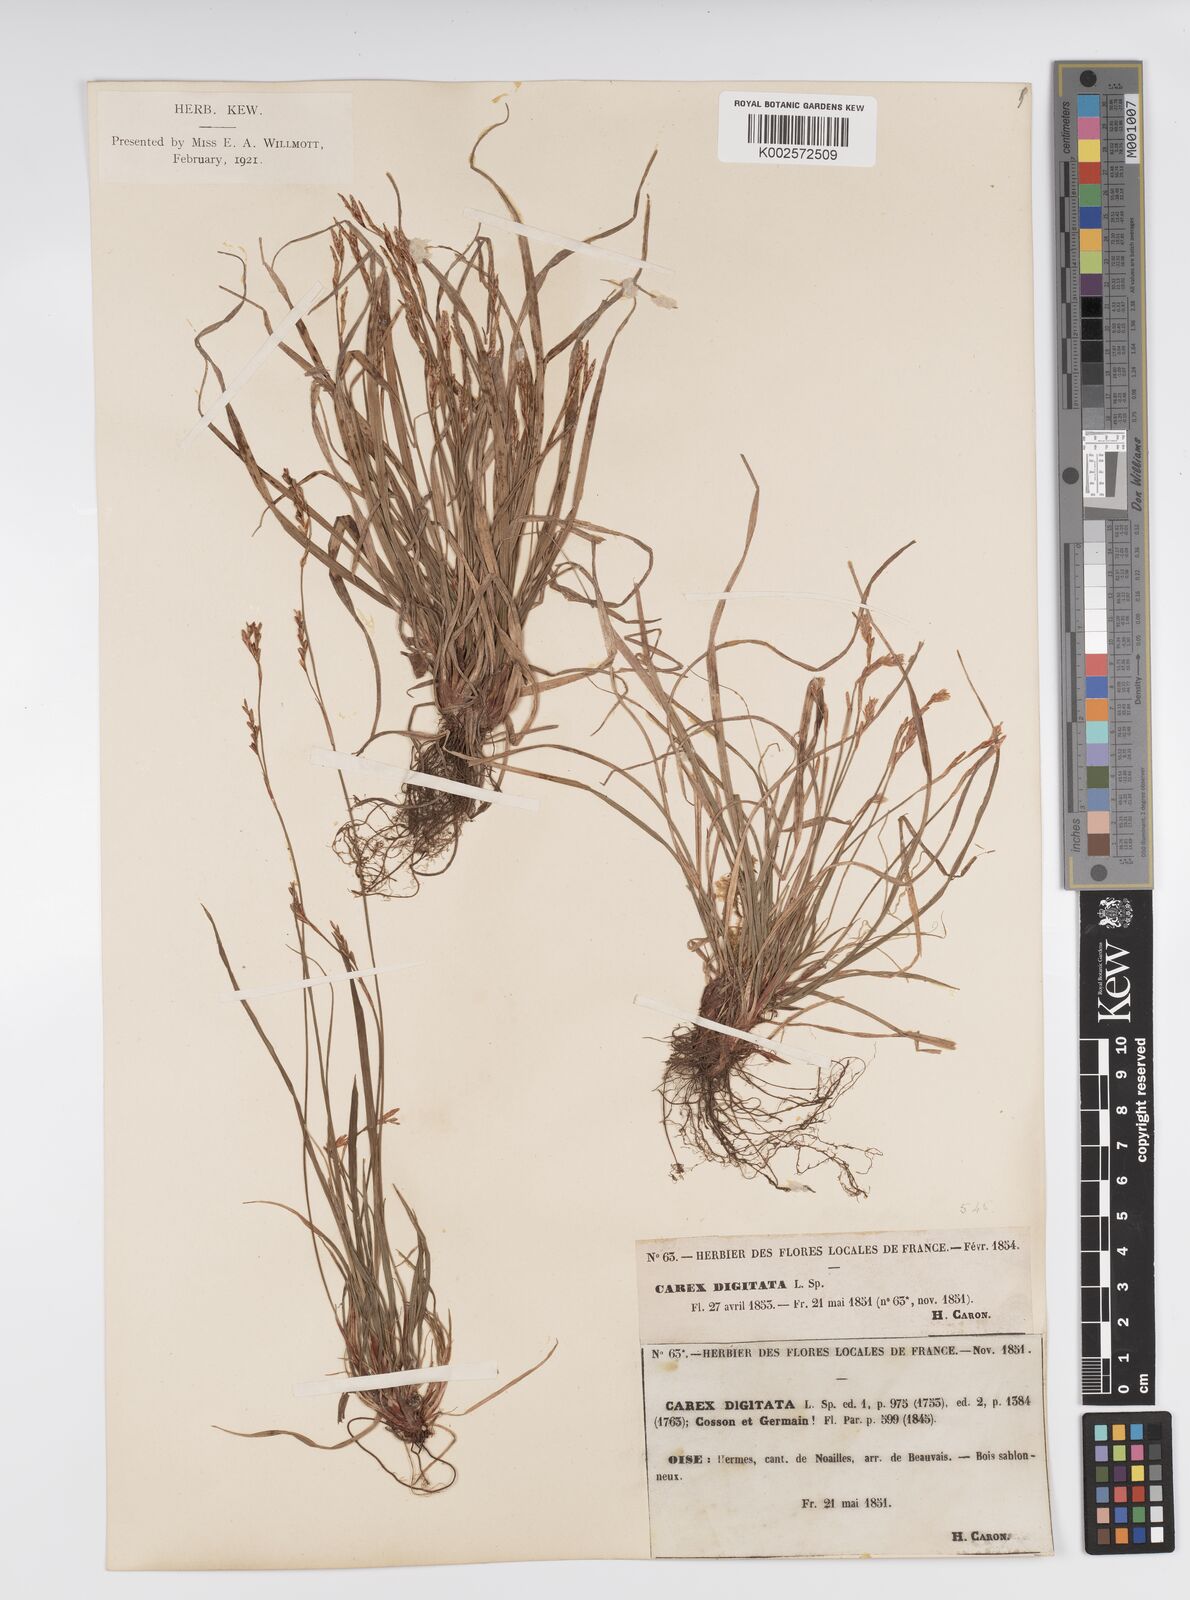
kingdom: Plantae
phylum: Tracheophyta
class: Liliopsida
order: Poales
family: Cyperaceae
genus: Carex
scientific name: Carex digitata
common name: Fingered sedge
